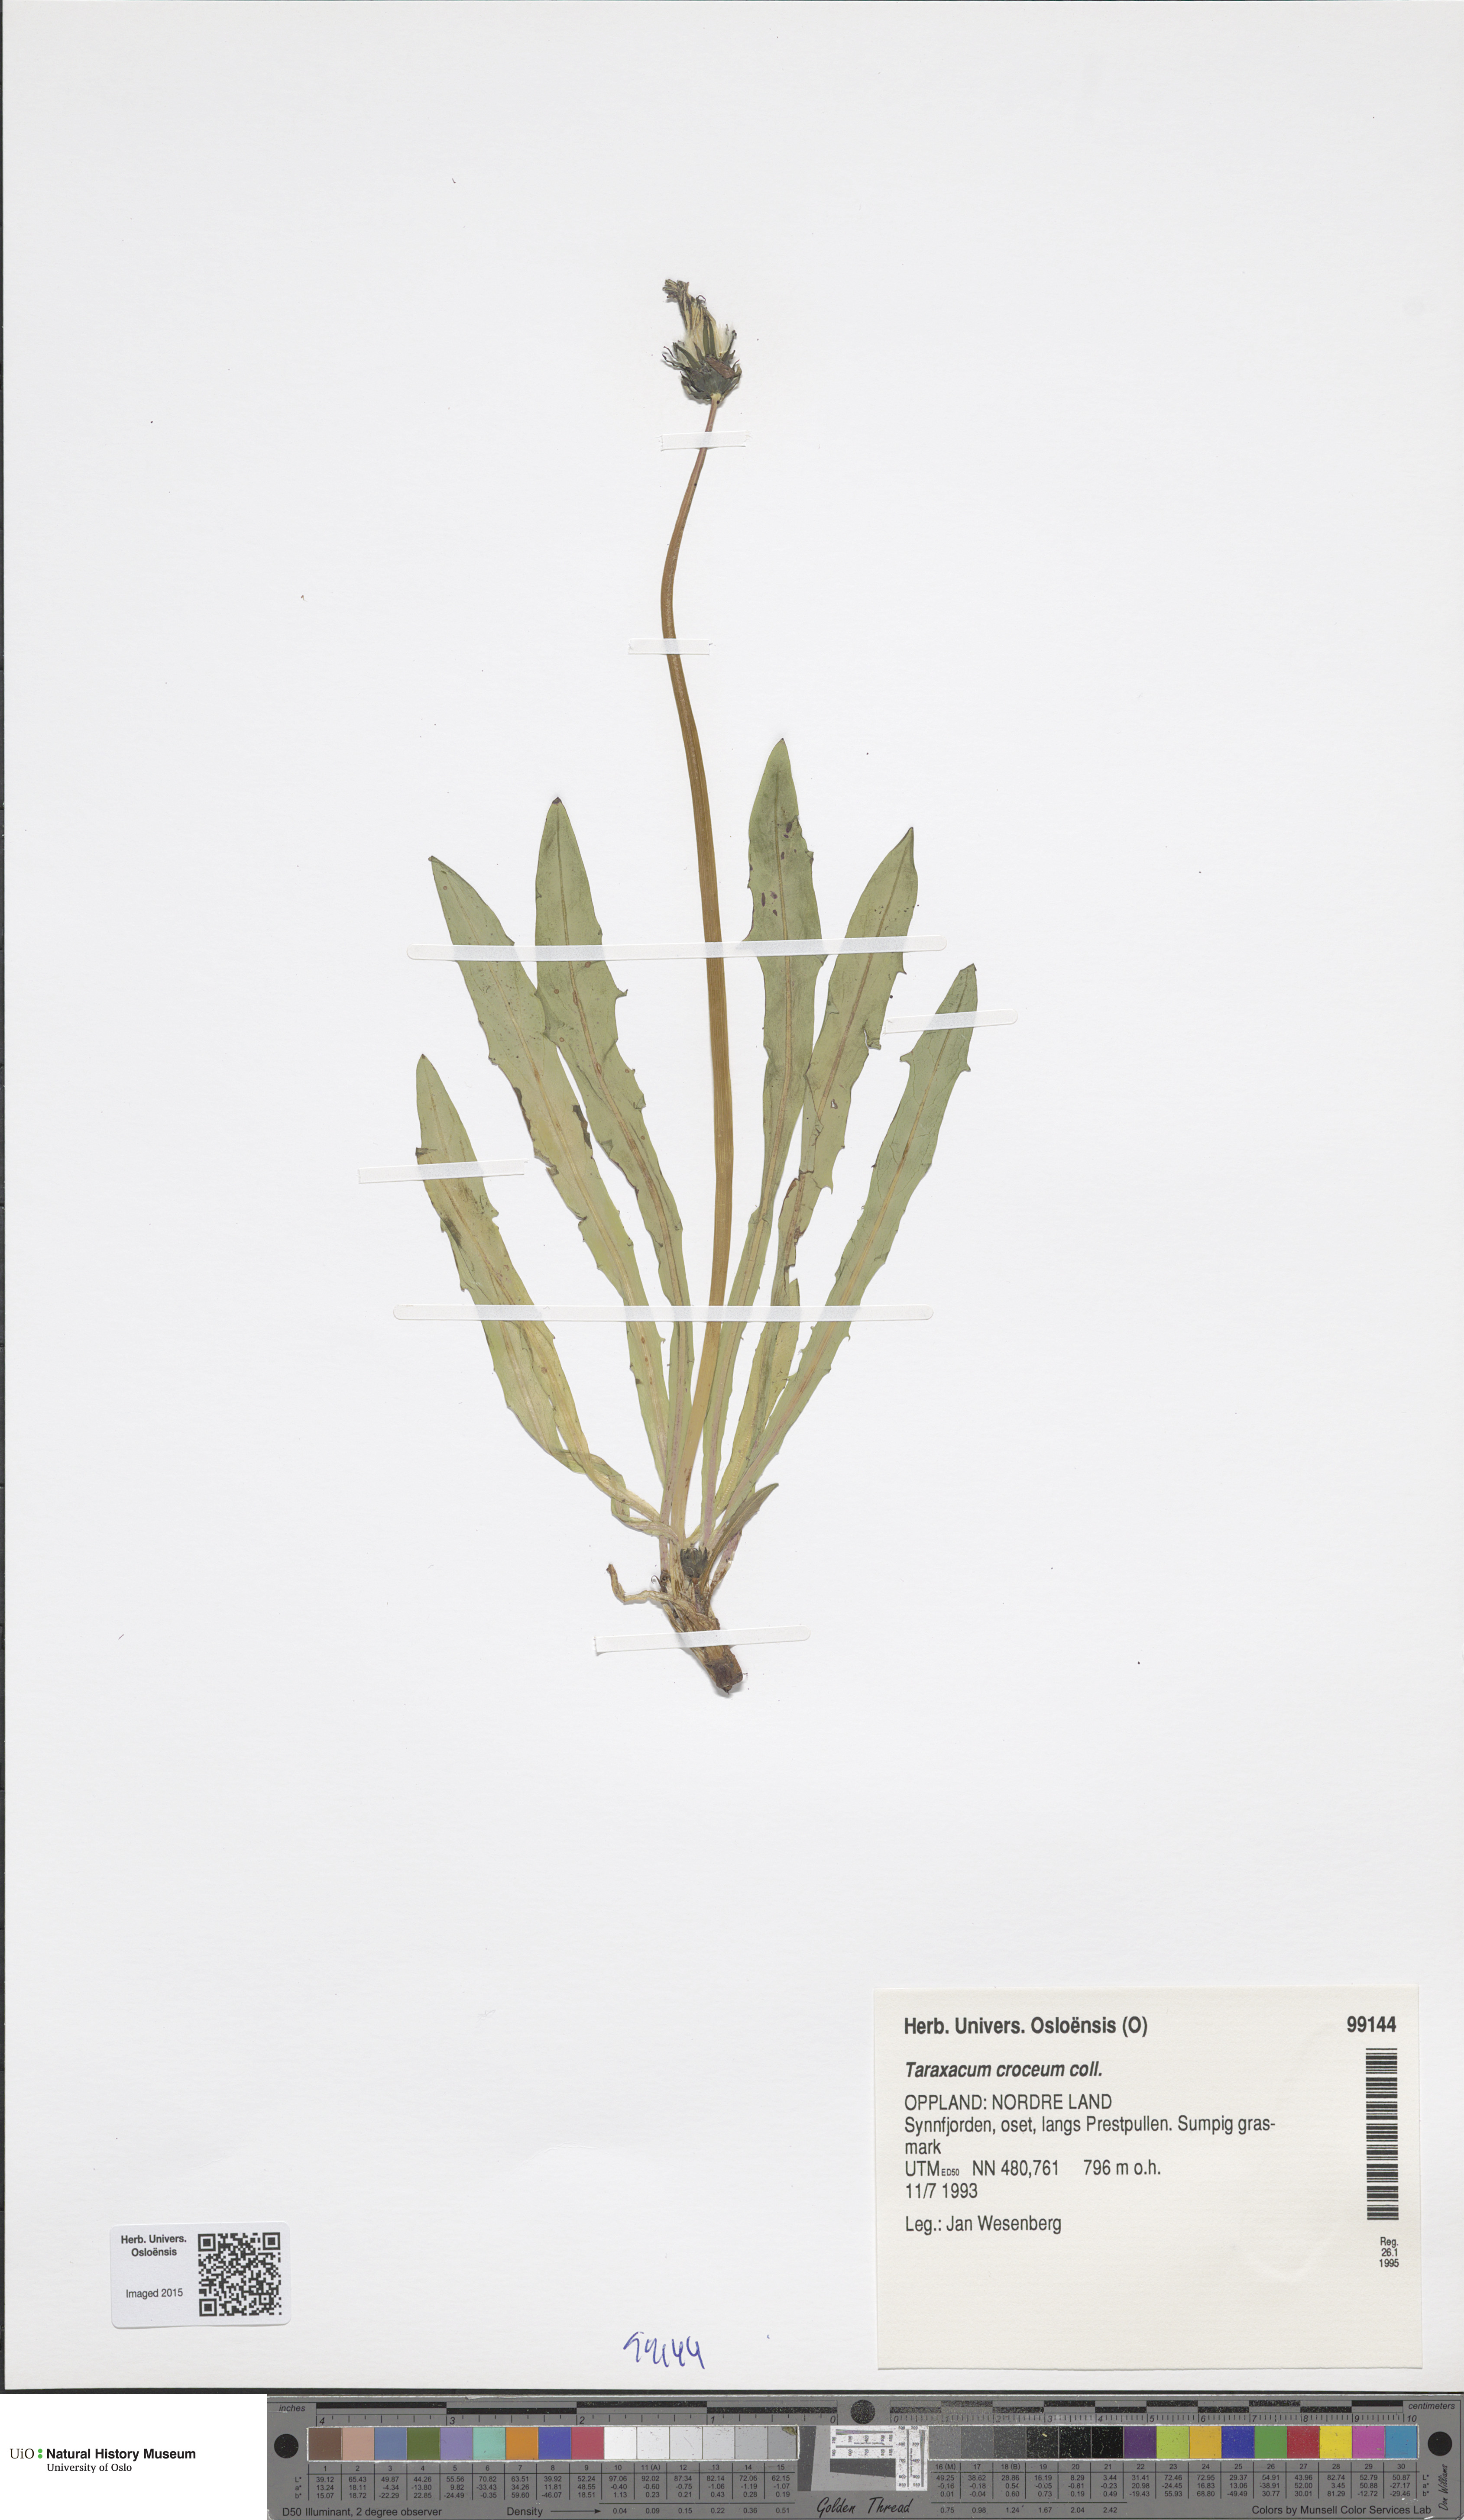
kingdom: Plantae
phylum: Tracheophyta
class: Magnoliopsida
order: Asterales
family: Asteraceae
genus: Taraxacum
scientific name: Taraxacum croceum
